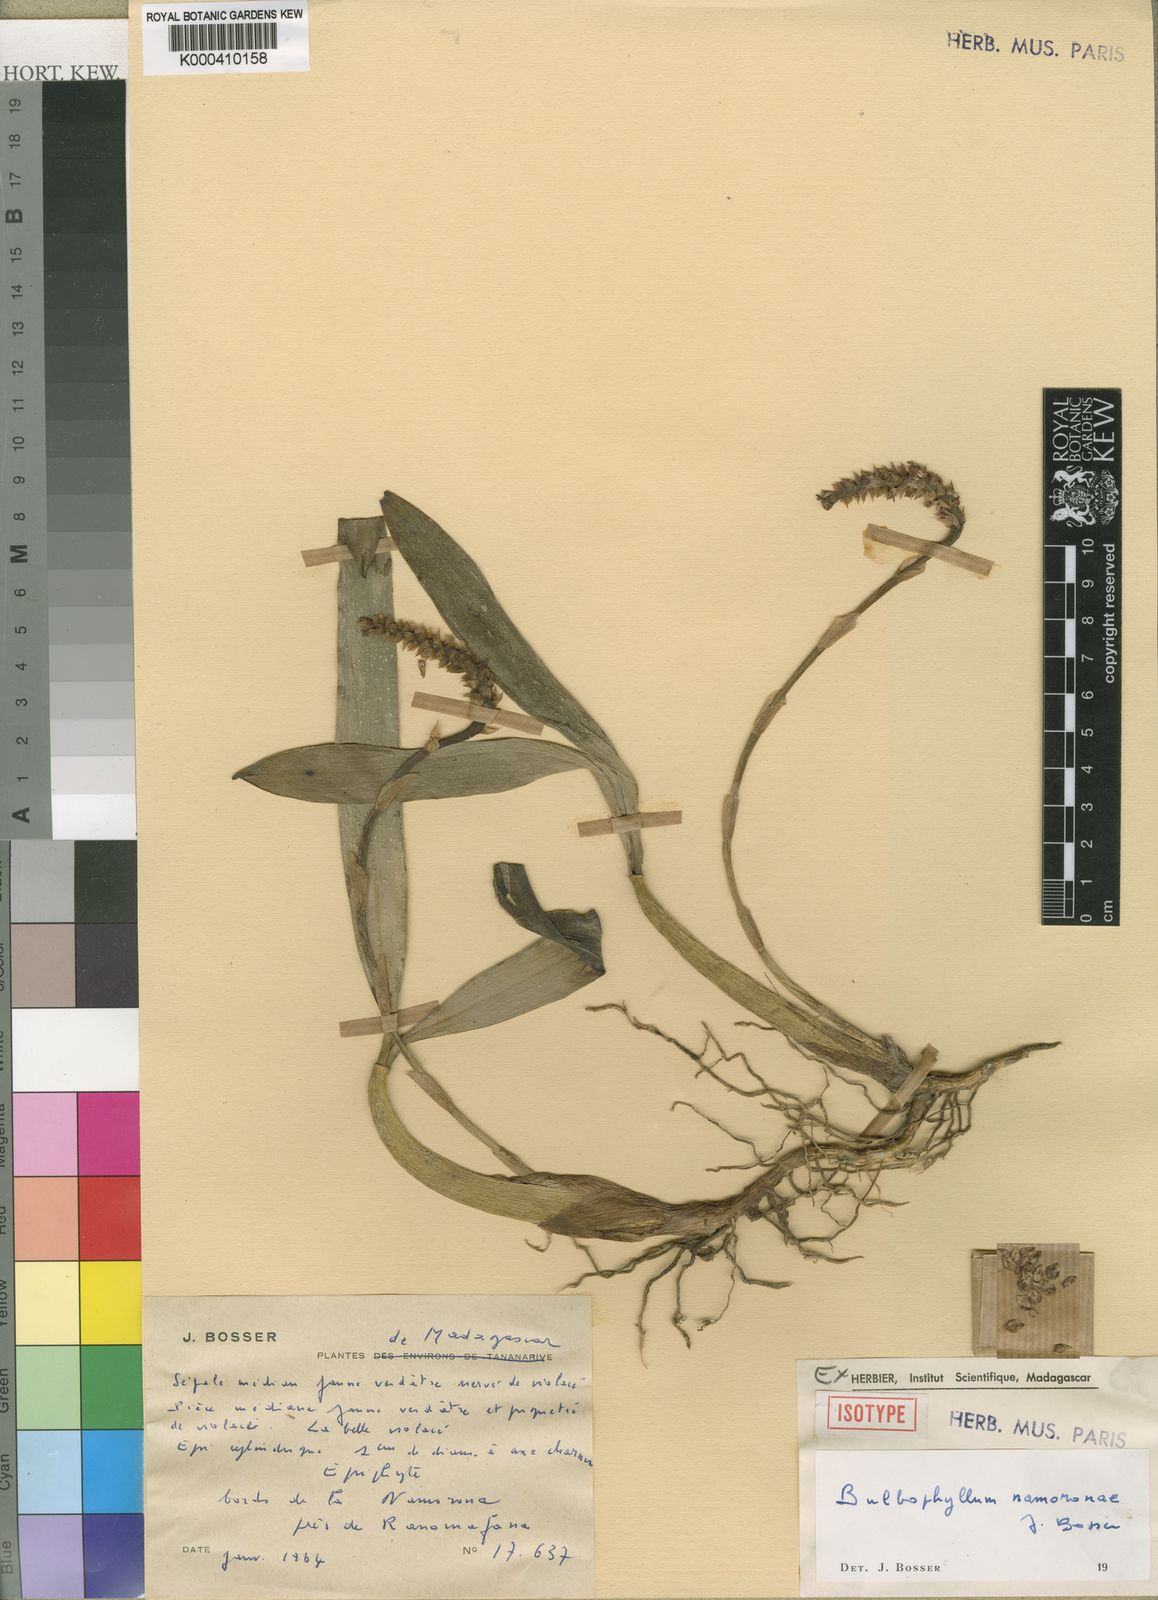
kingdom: Plantae
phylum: Tracheophyta
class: Liliopsida
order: Asparagales
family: Orchidaceae
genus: Bulbophyllum
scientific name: Bulbophyllum namoronae
